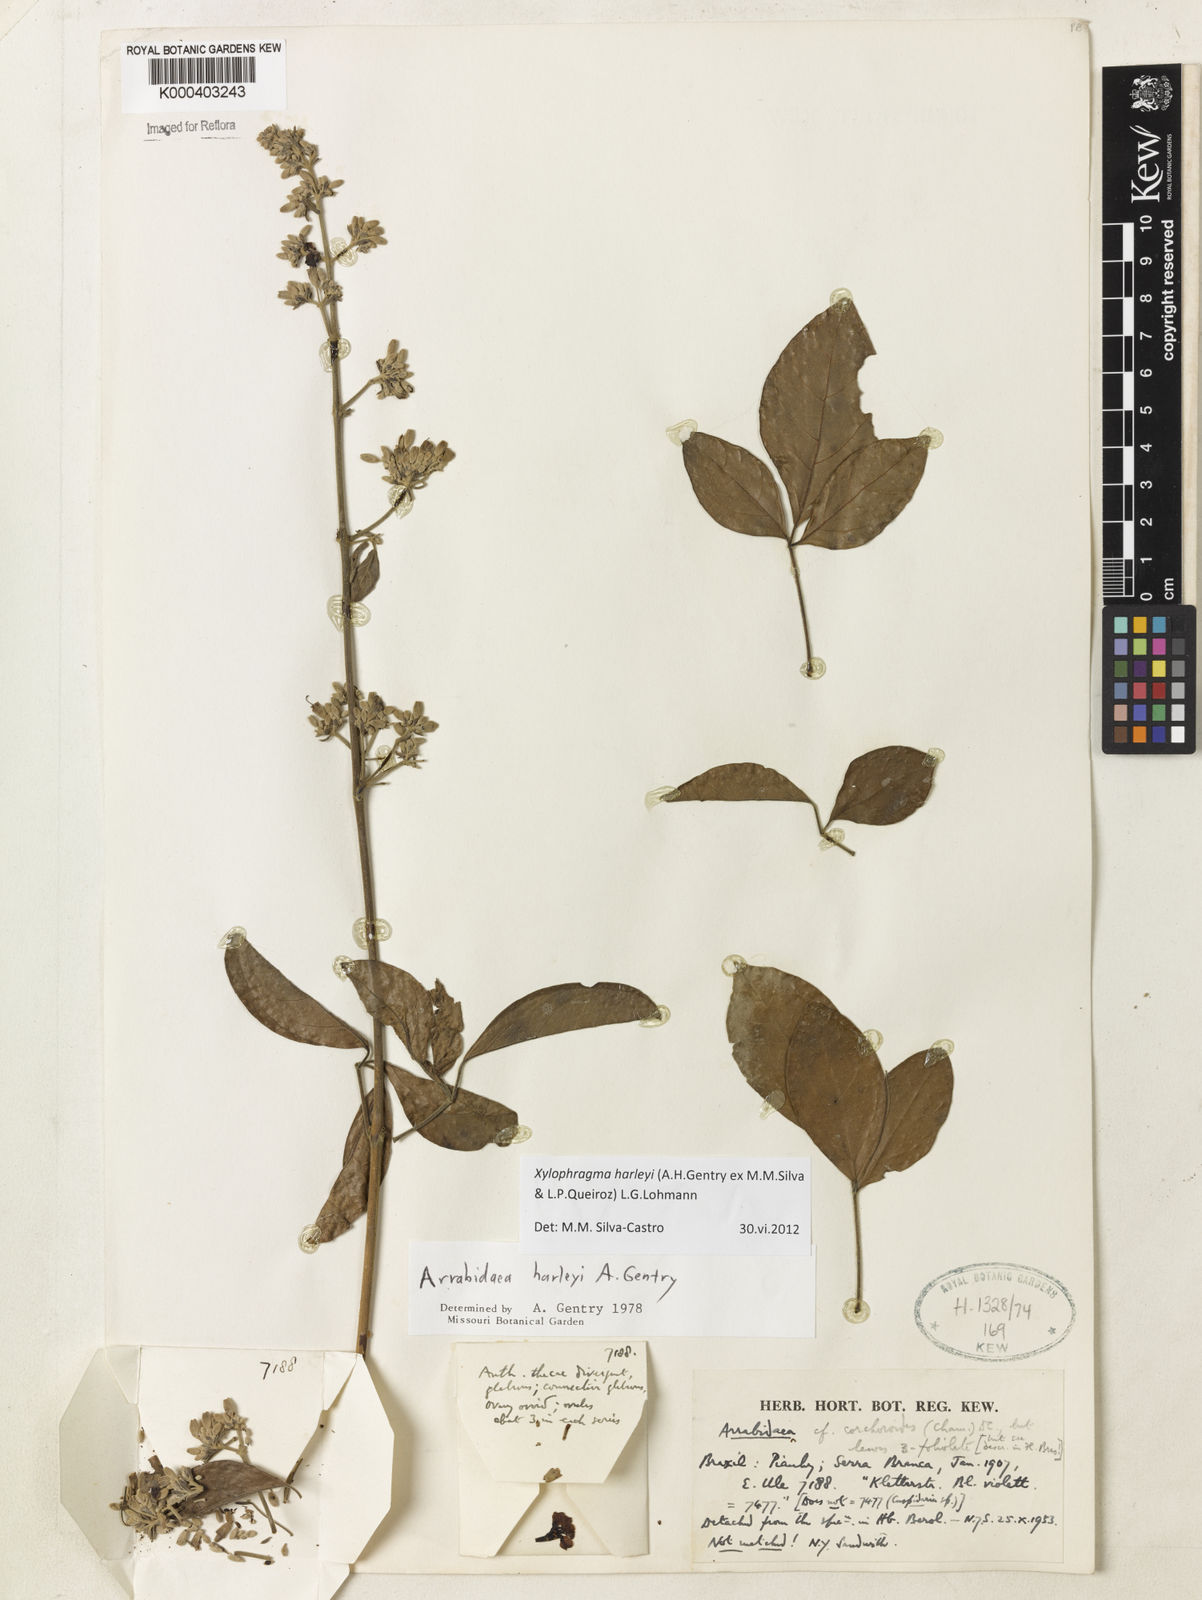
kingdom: Plantae
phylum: Tracheophyta
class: Magnoliopsida
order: Lamiales
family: Bignoniaceae
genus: Xylophragma
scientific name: Xylophragma harleyi
